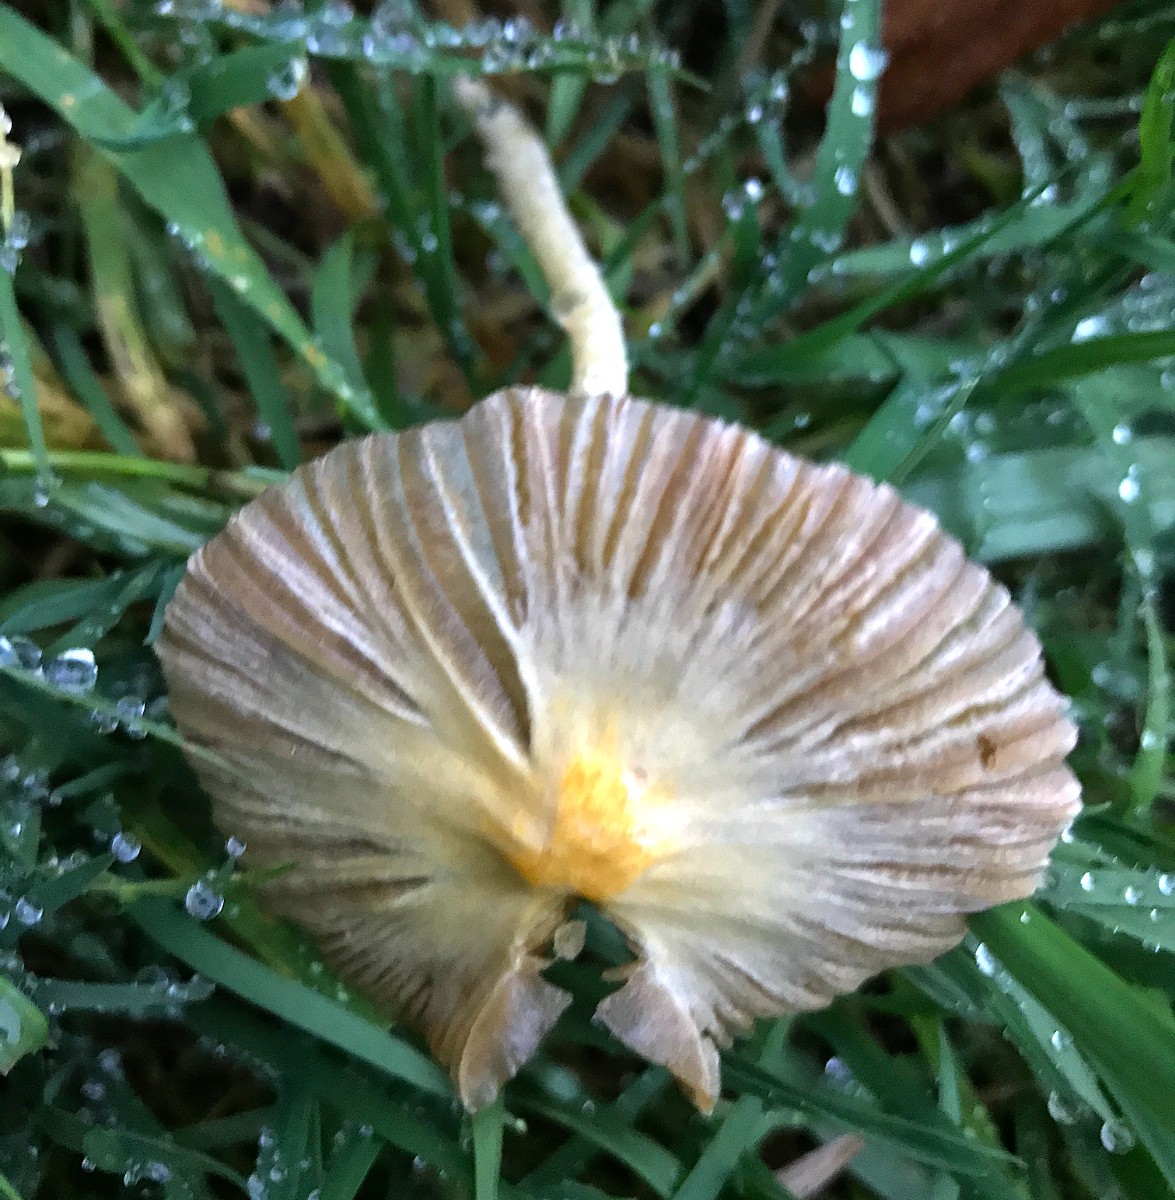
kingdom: Fungi
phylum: Basidiomycota
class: Agaricomycetes
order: Agaricales
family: Bolbitiaceae
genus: Bolbitius
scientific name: Bolbitius titubans
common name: almindelig gulhat
